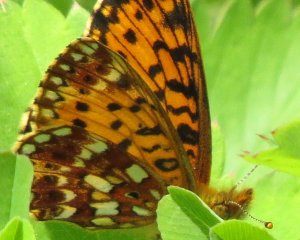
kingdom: Animalia
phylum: Arthropoda
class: Insecta
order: Lepidoptera
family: Nymphalidae
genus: Boloria
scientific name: Boloria selene
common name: Silver-bordered Fritillary
